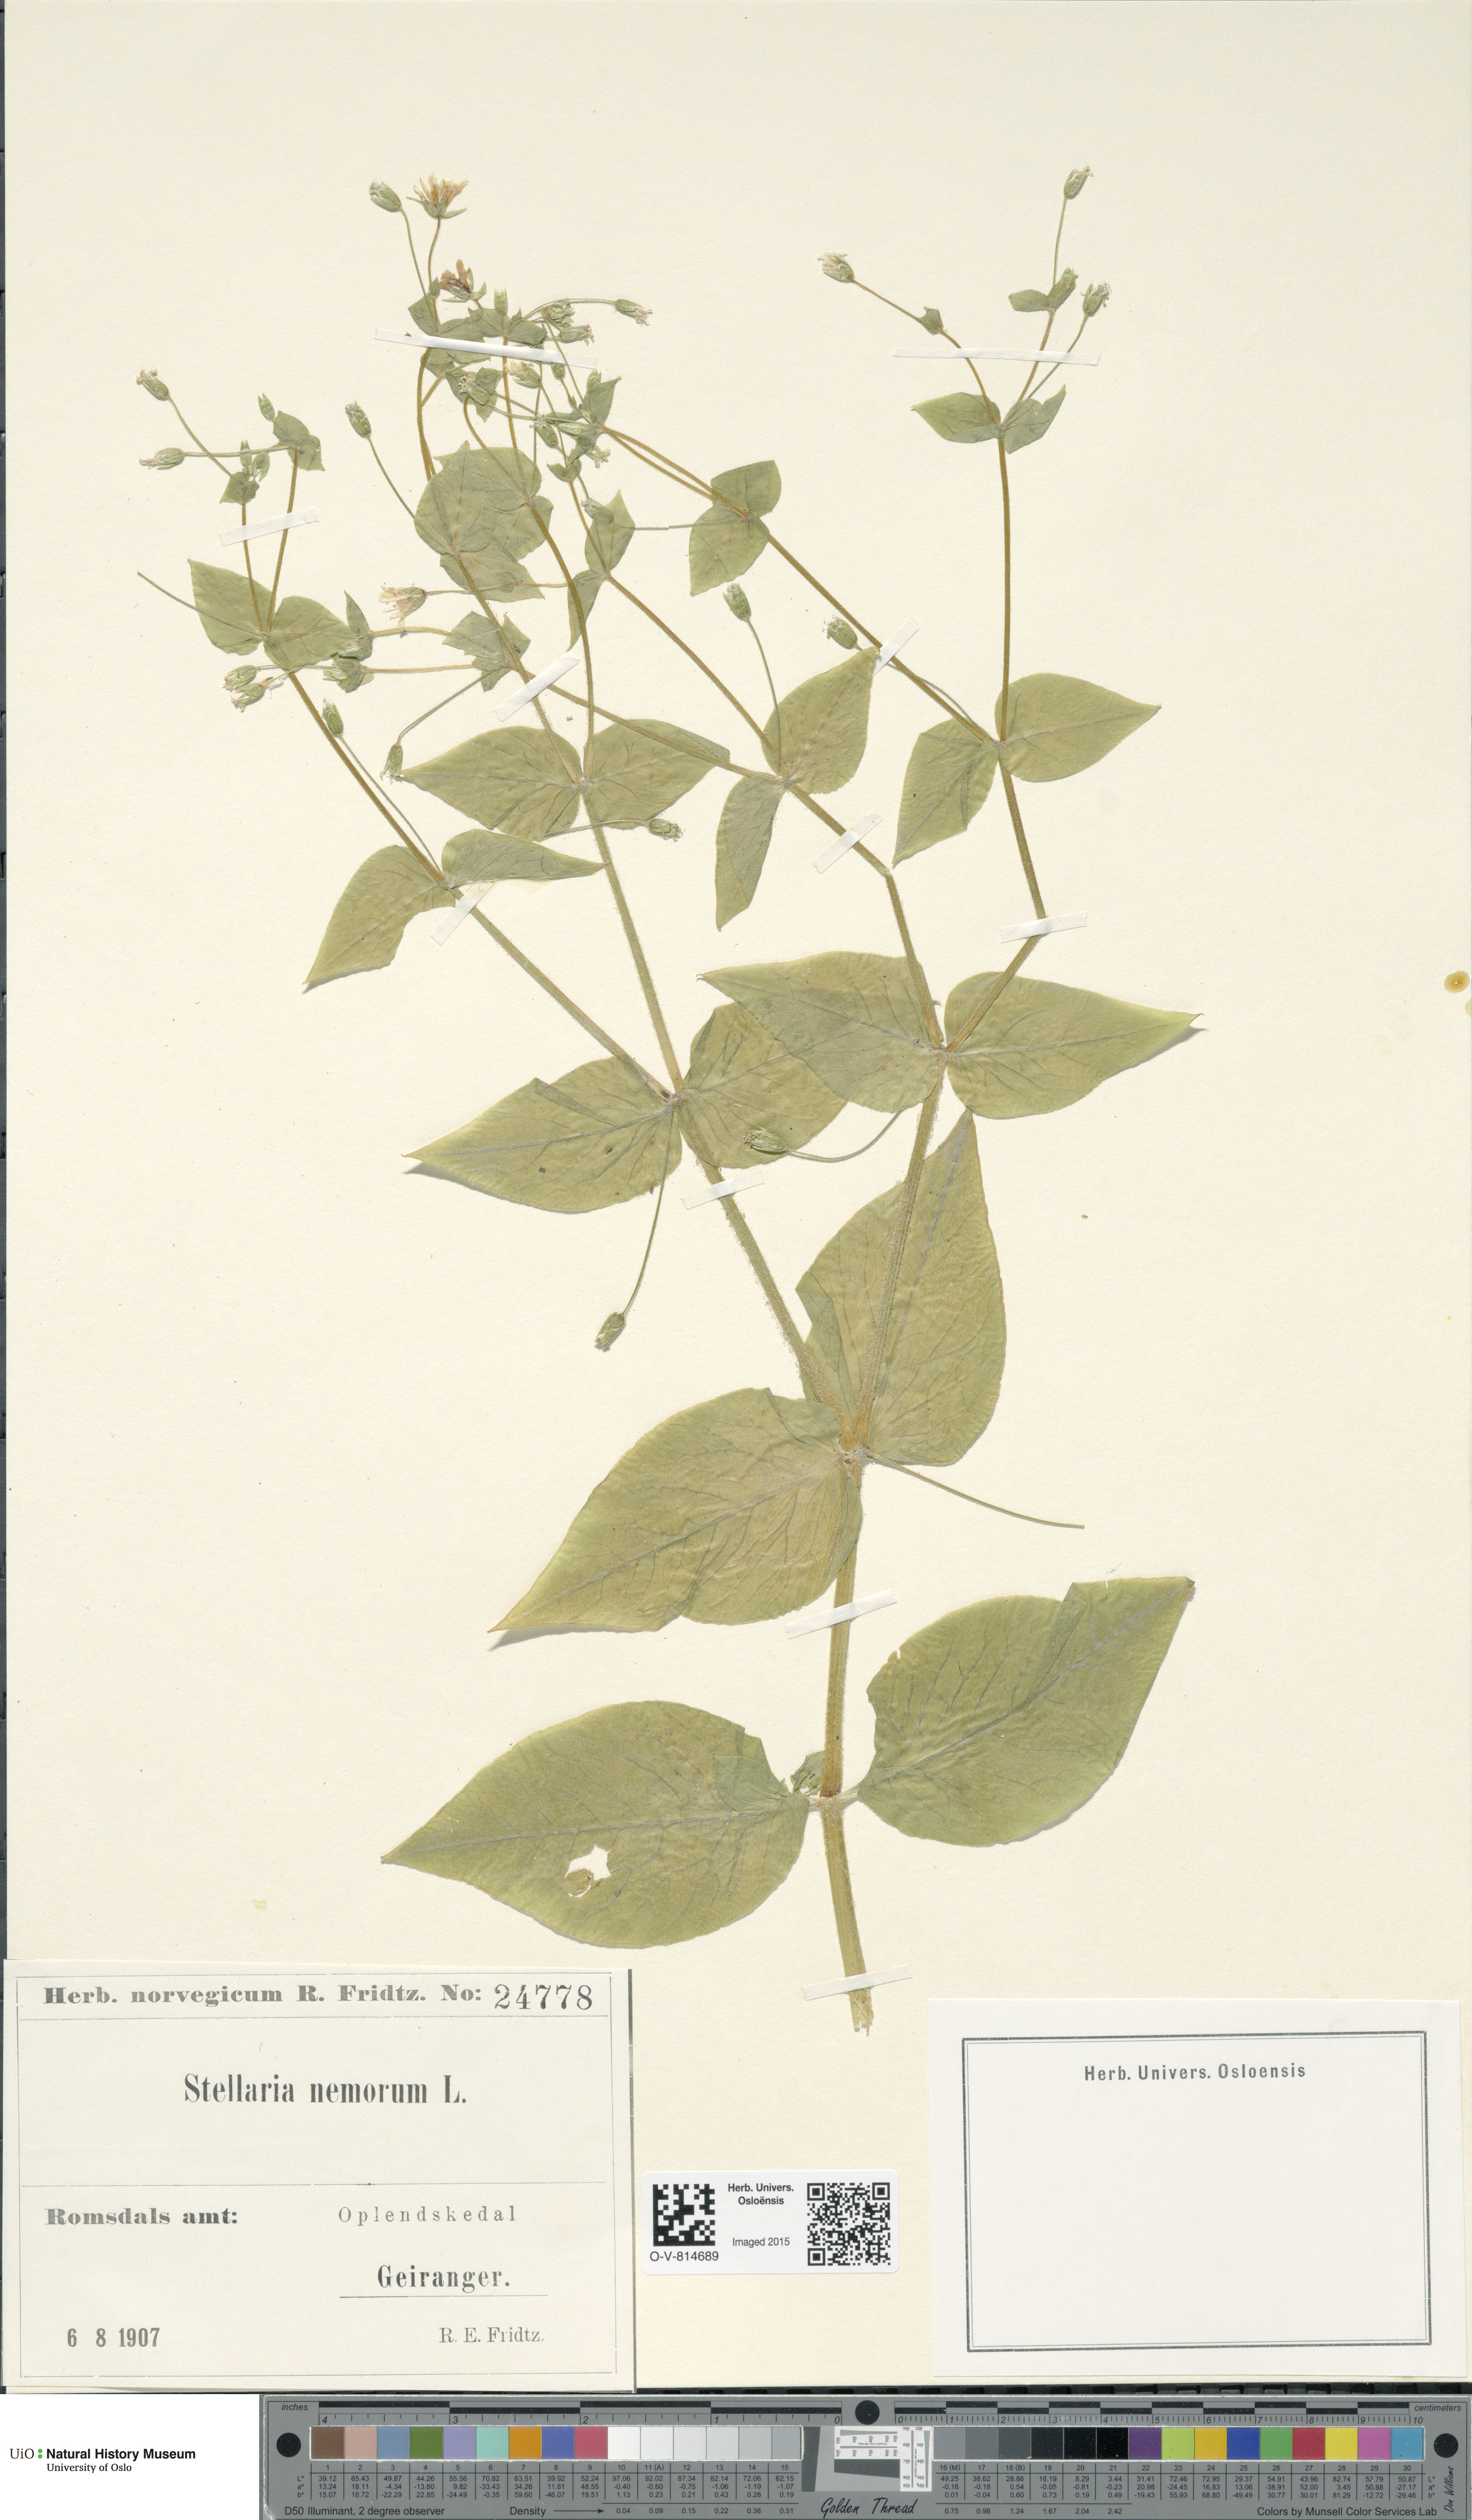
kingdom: Plantae
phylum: Tracheophyta
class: Magnoliopsida
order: Caryophyllales
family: Caryophyllaceae
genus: Stellaria
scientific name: Stellaria nemorum
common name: Wood stitchwort
